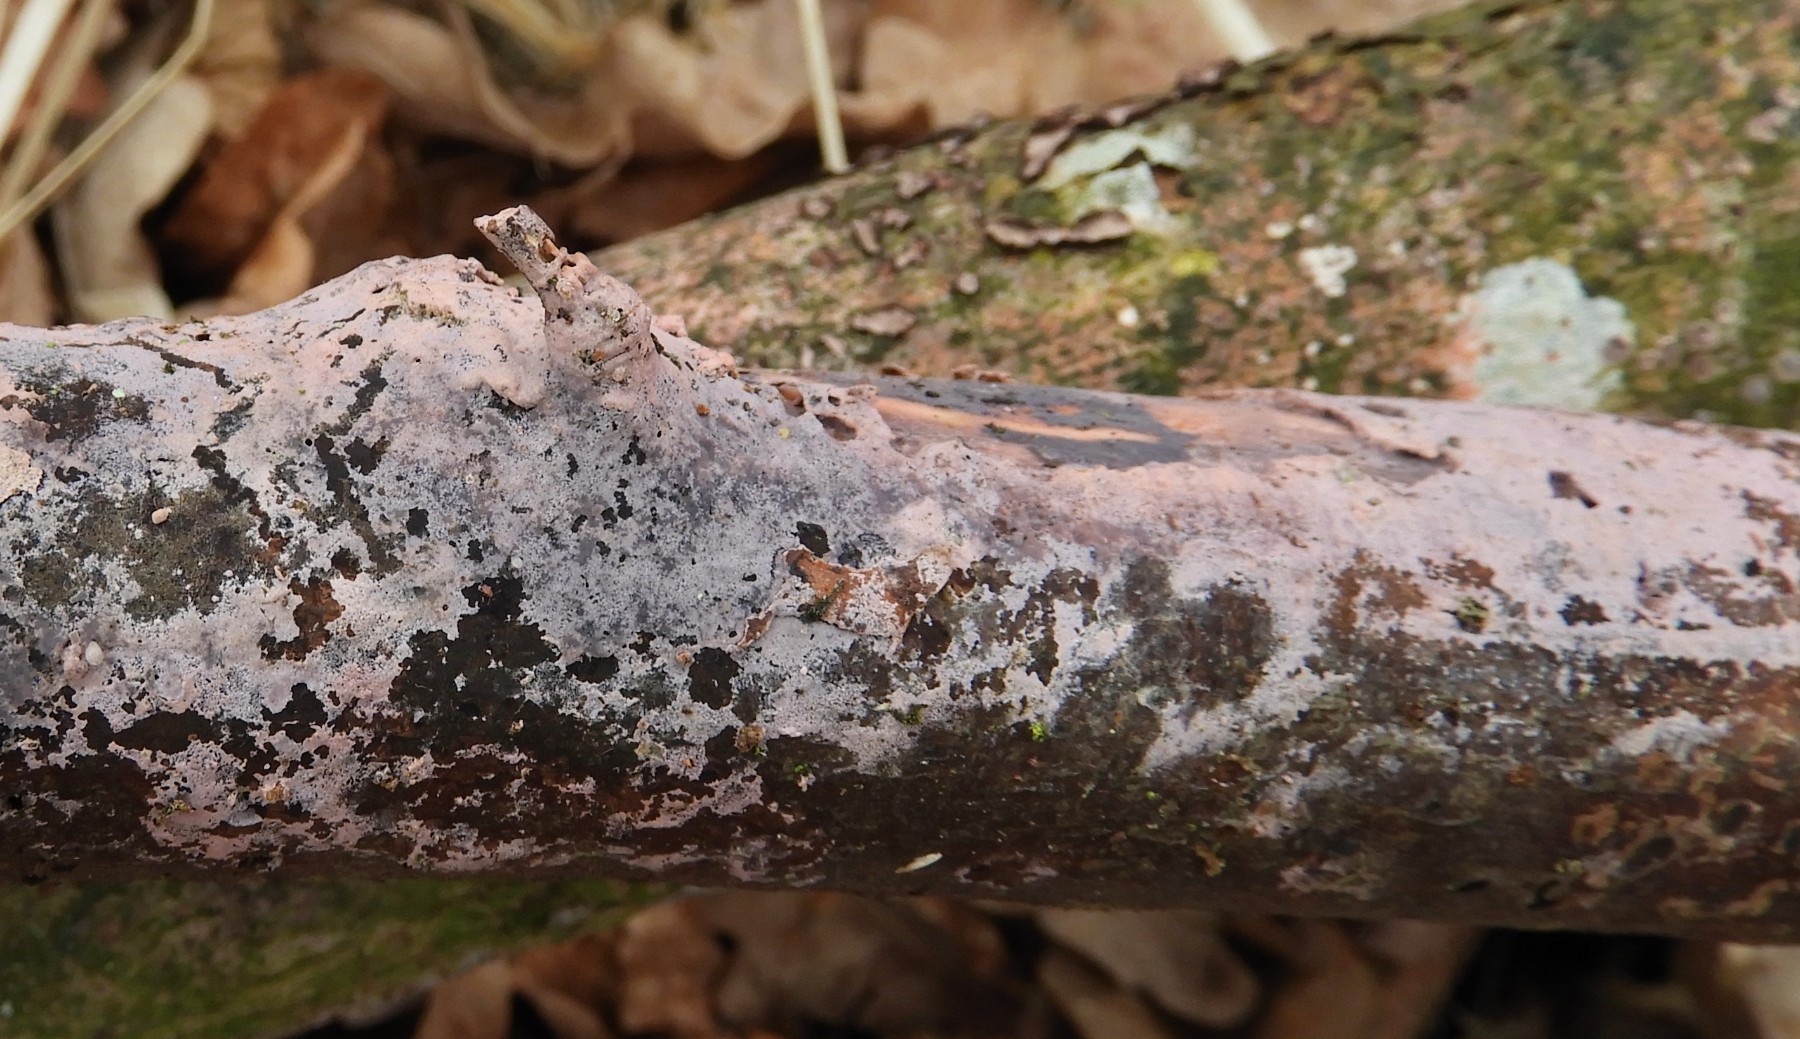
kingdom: Fungi
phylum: Basidiomycota
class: Agaricomycetes
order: Cantharellales
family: Tulasnellaceae
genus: Tulasnella
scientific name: Tulasnella violea
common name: violet ballonhinde
